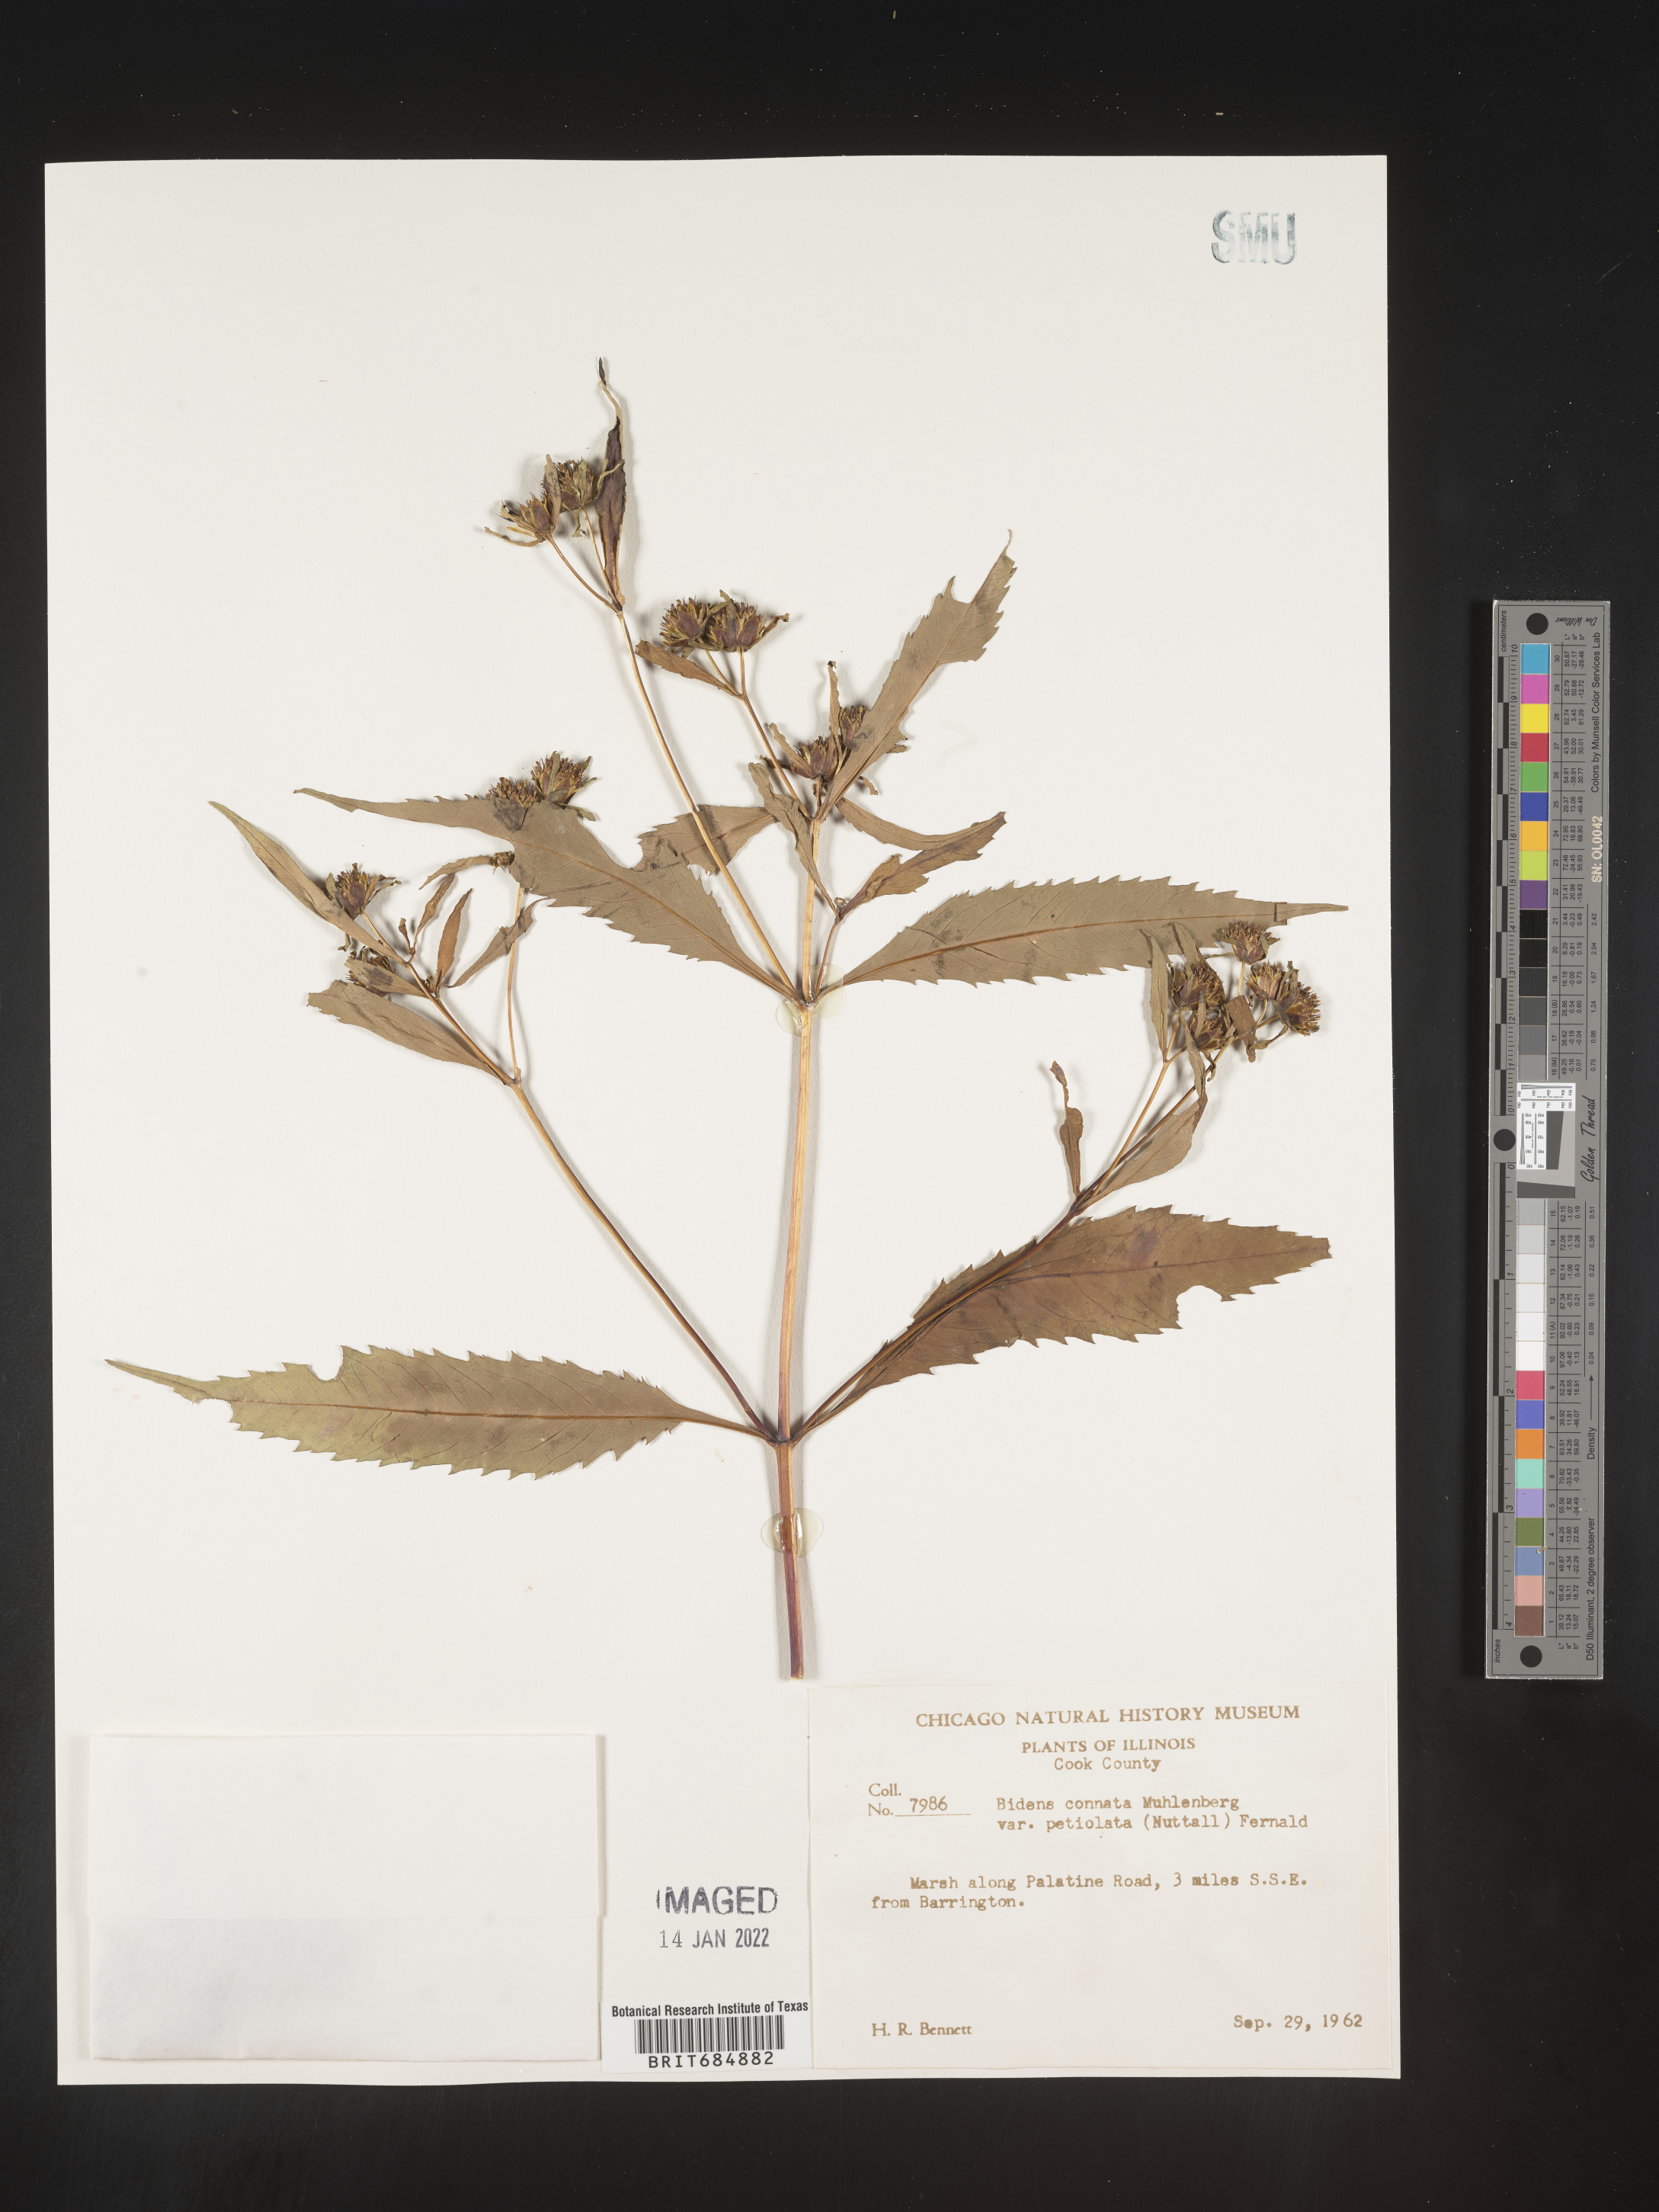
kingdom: Plantae
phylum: Tracheophyta
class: Magnoliopsida
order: Asterales
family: Asteraceae
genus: Bidens
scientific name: Bidens tripartita
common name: Trifid bur-marigold
